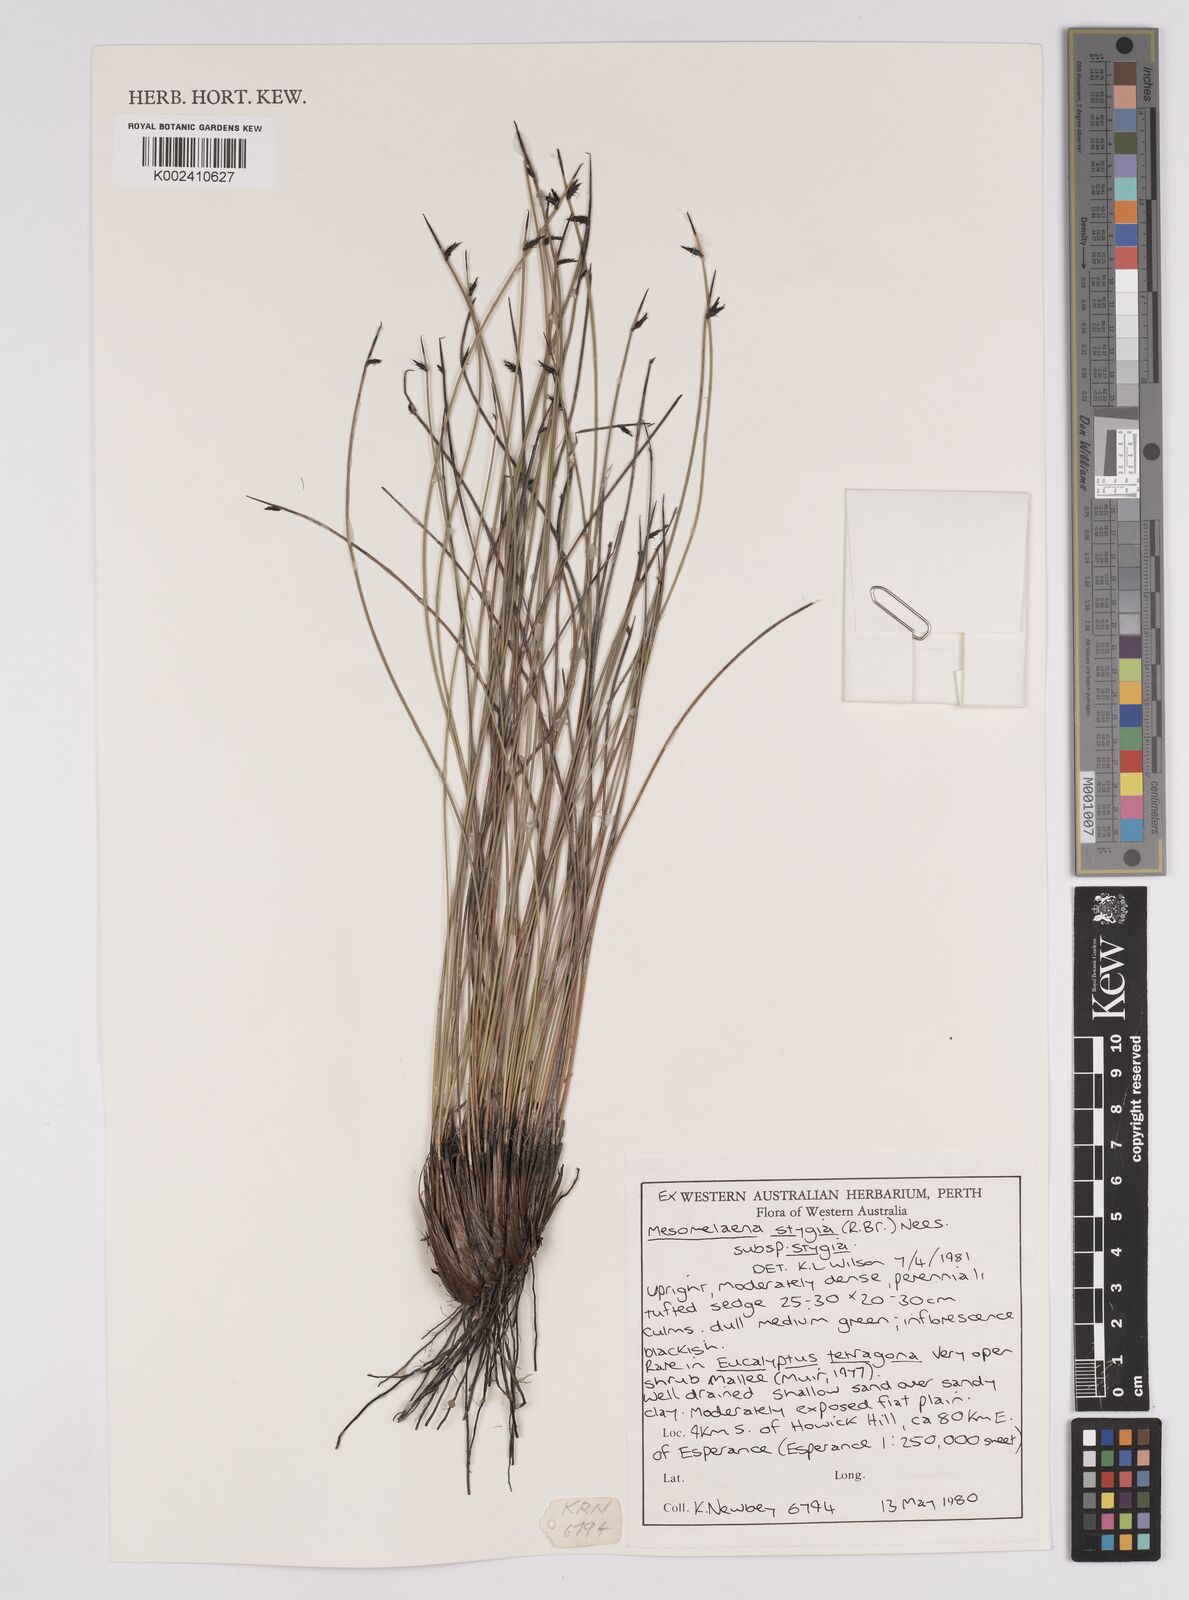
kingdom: Plantae
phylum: Tracheophyta
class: Liliopsida
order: Poales
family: Cyperaceae
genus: Mesomelaena
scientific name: Mesomelaena stygia
